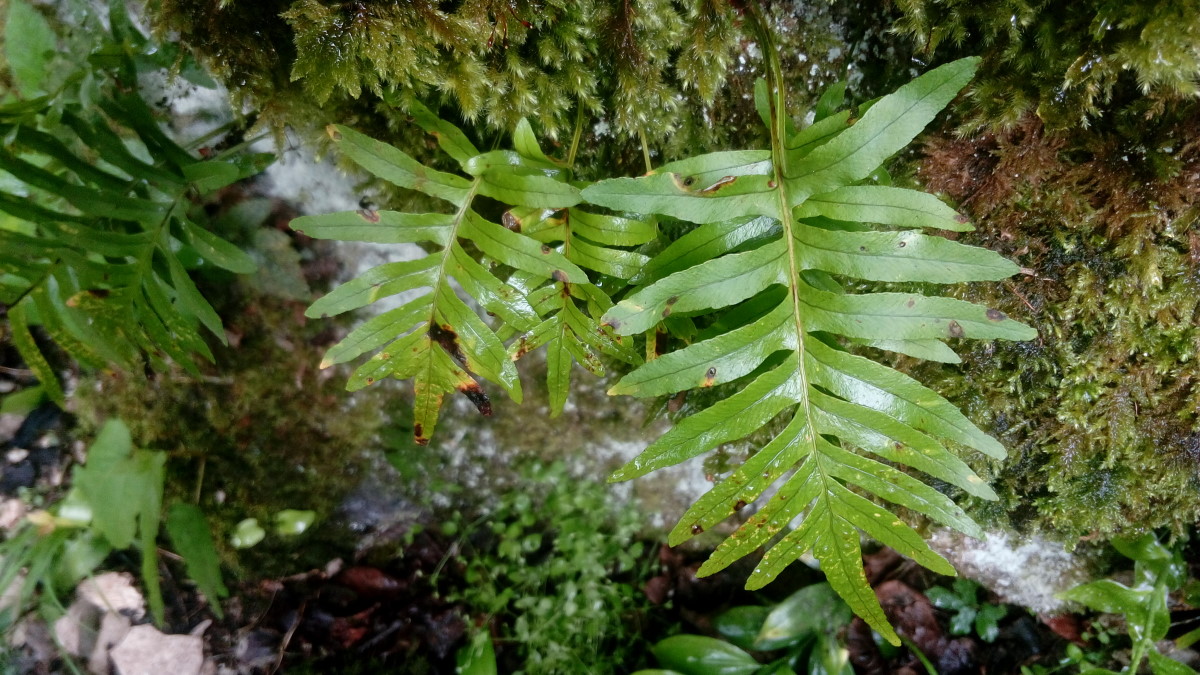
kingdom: Plantae
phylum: Tracheophyta
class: Polypodiopsida
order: Polypodiales
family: Polypodiaceae
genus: Polypodium
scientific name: Polypodium vulgare
